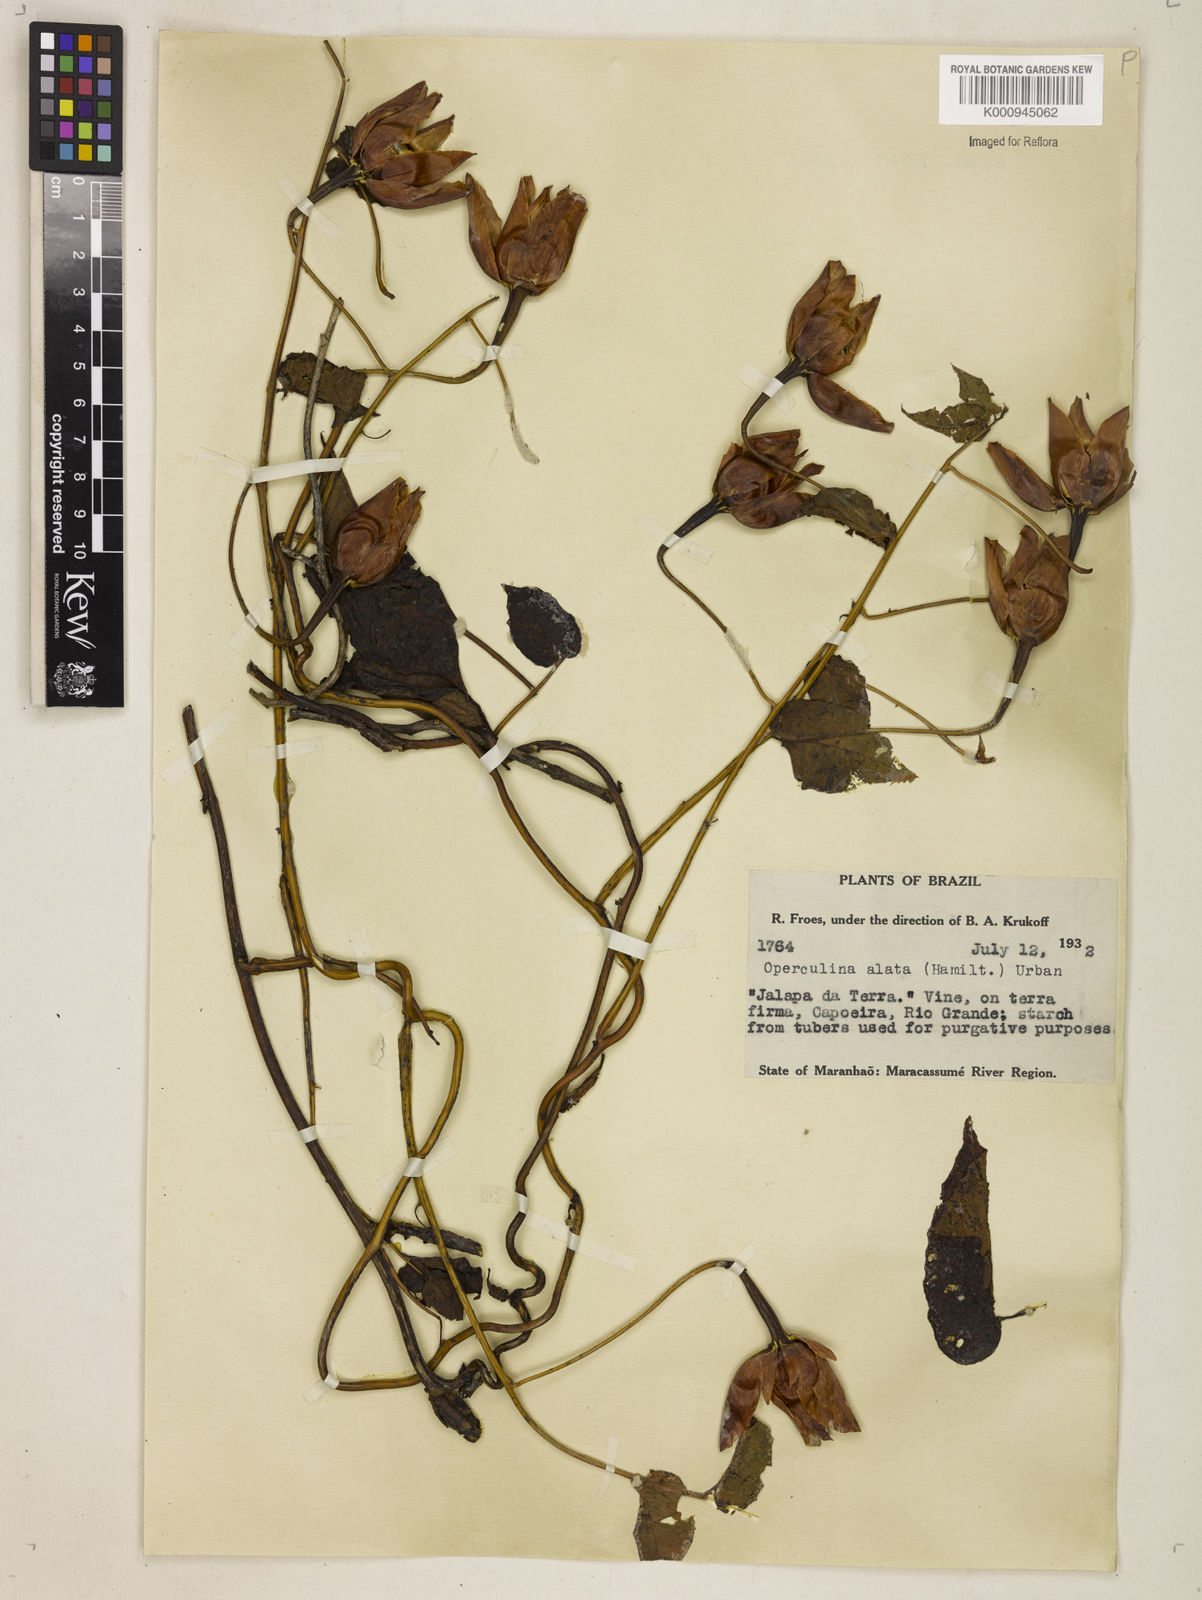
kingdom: Plantae
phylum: Tracheophyta
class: Magnoliopsida
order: Solanales
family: Convolvulaceae
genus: Operculina
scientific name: Operculina hamiltonii
